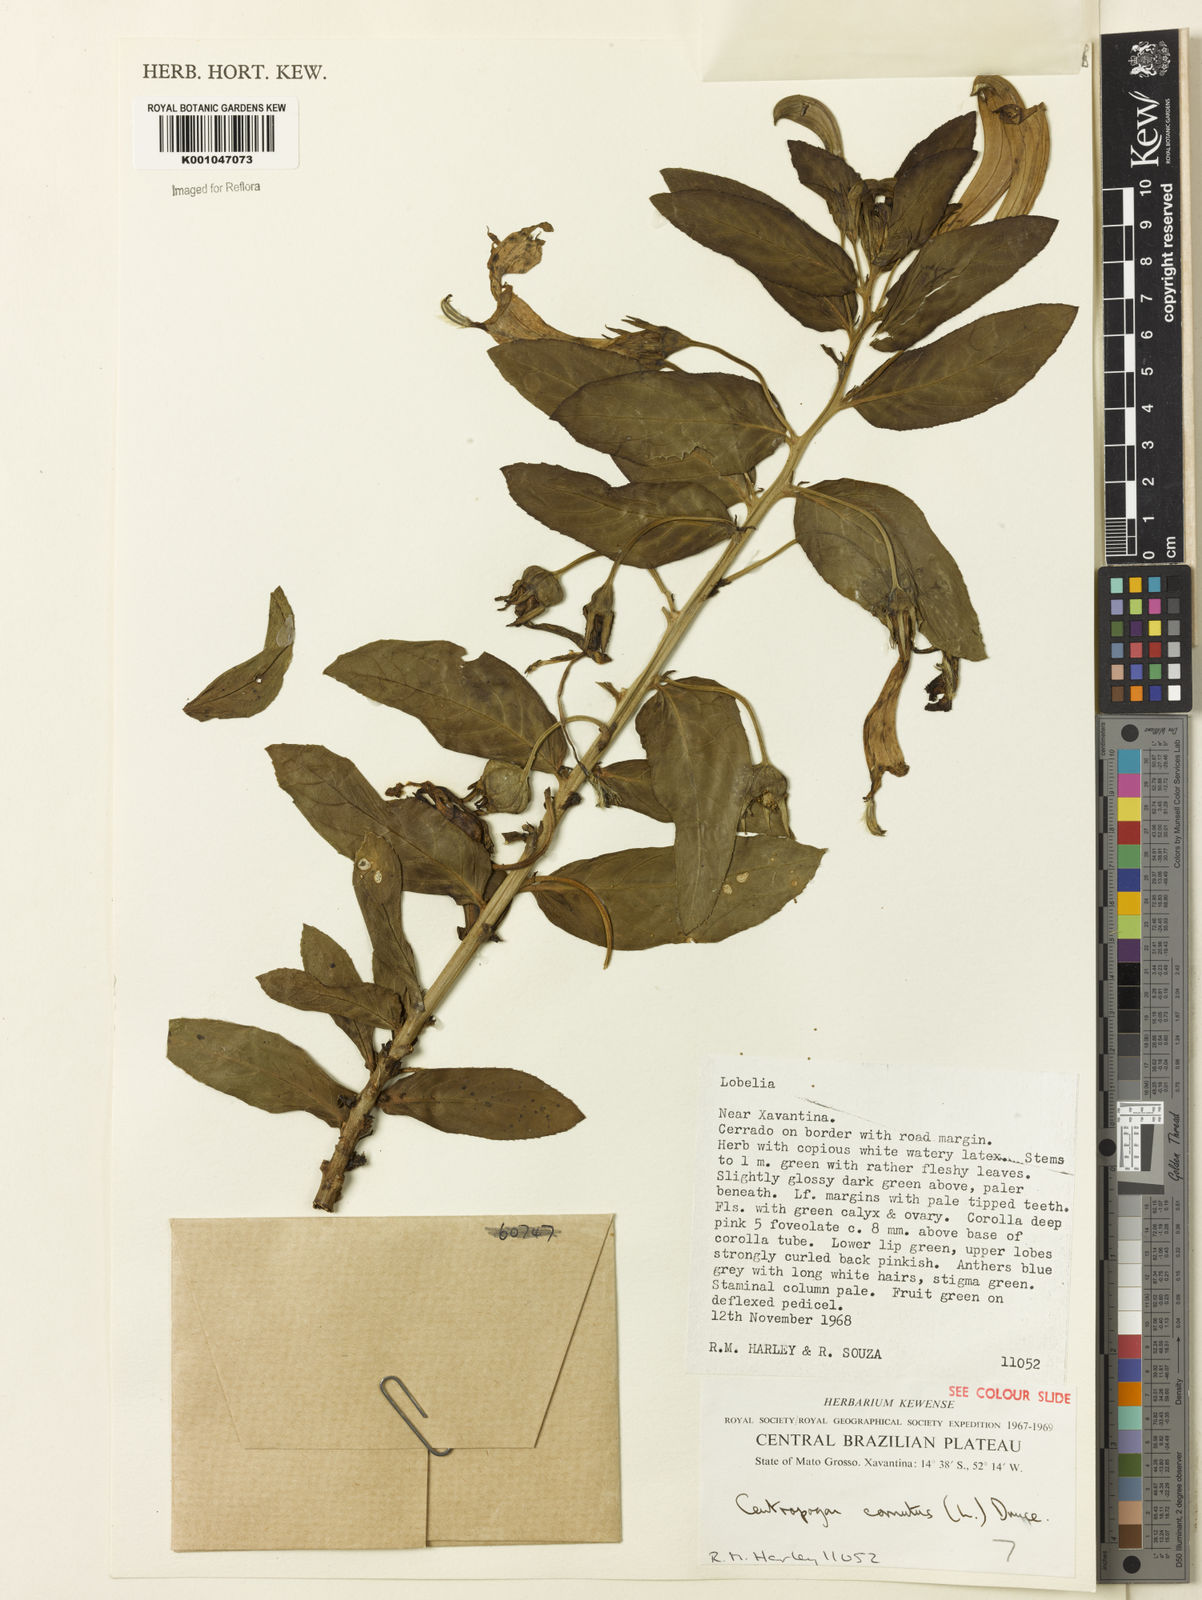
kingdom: Plantae
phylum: Tracheophyta
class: Magnoliopsida
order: Asterales
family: Campanulaceae
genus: Centropogon
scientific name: Centropogon cornutus
